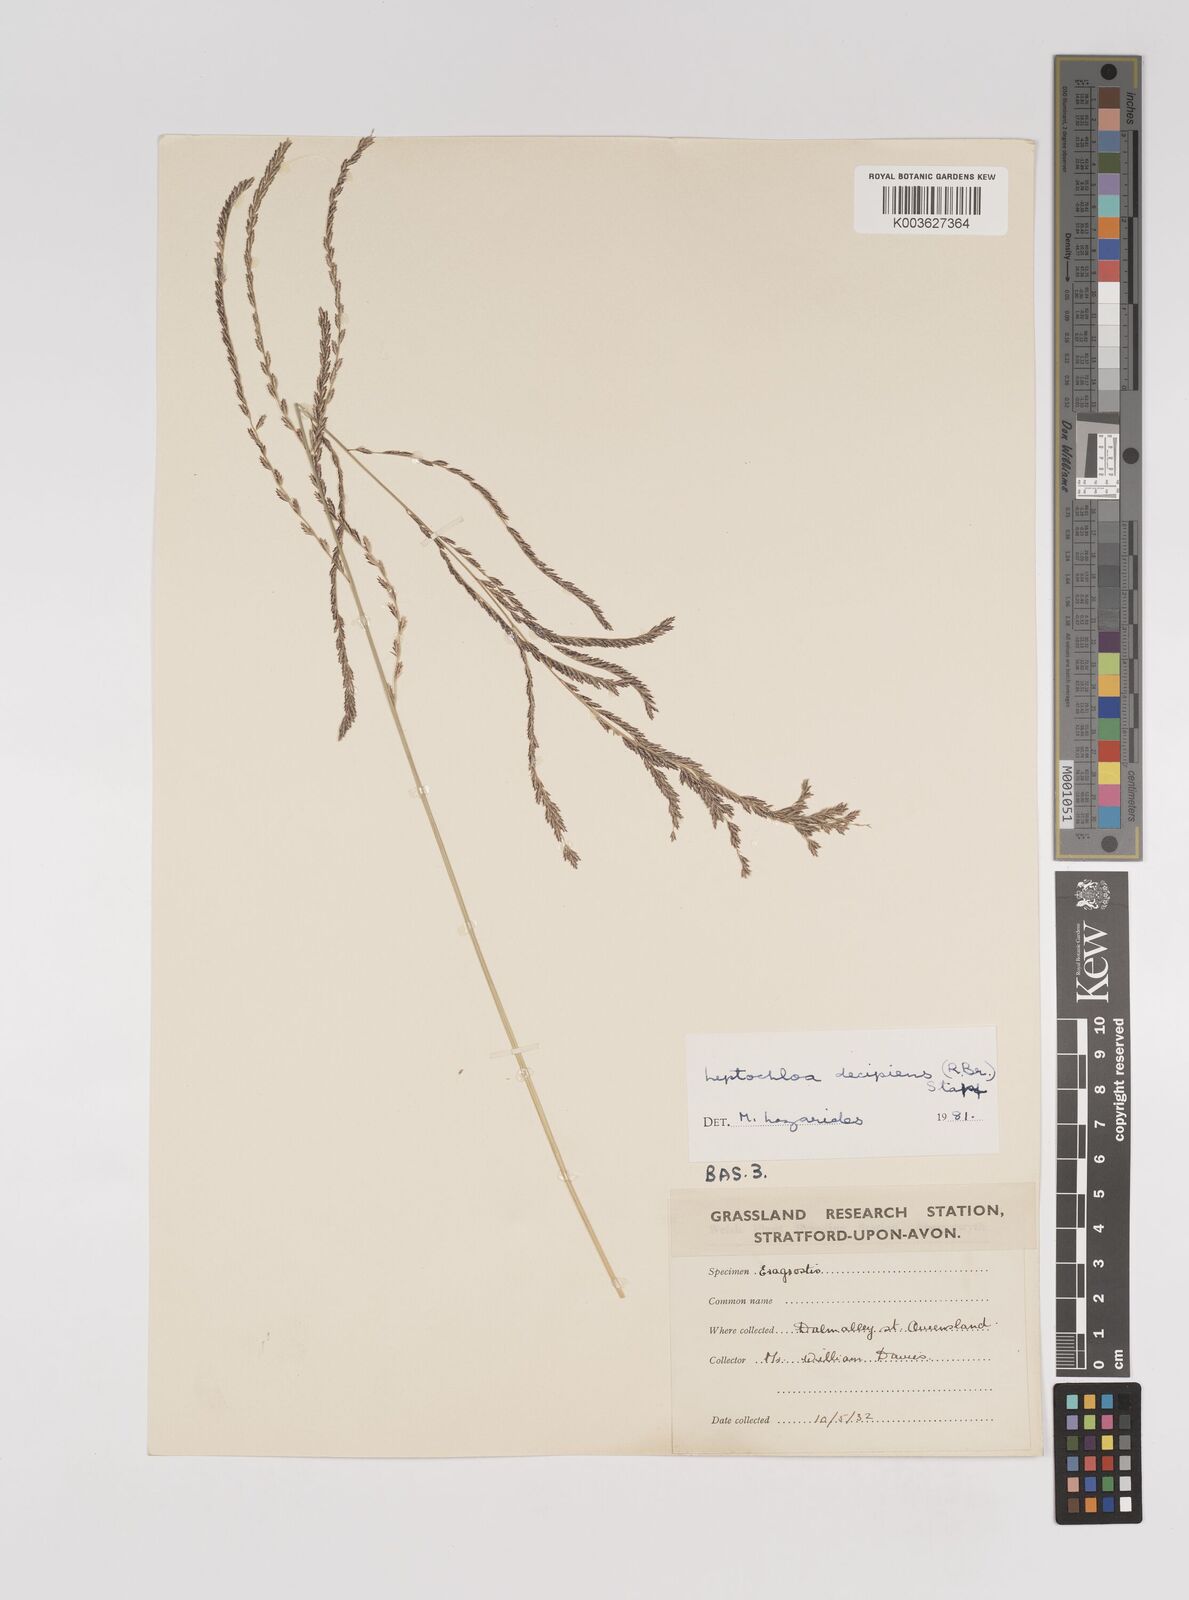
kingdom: Plantae
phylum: Tracheophyta
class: Liliopsida
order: Poales
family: Poaceae
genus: Leptochloa
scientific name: Leptochloa decipiens
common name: Australian sprangletop
